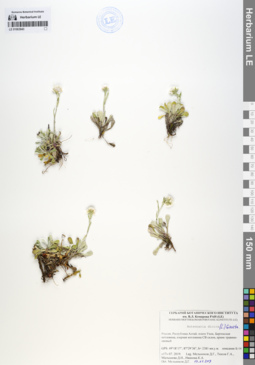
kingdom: Plantae
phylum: Tracheophyta
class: Magnoliopsida
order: Asterales
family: Asteraceae
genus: Antennaria
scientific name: Antennaria dioica
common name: Mountain everlasting
